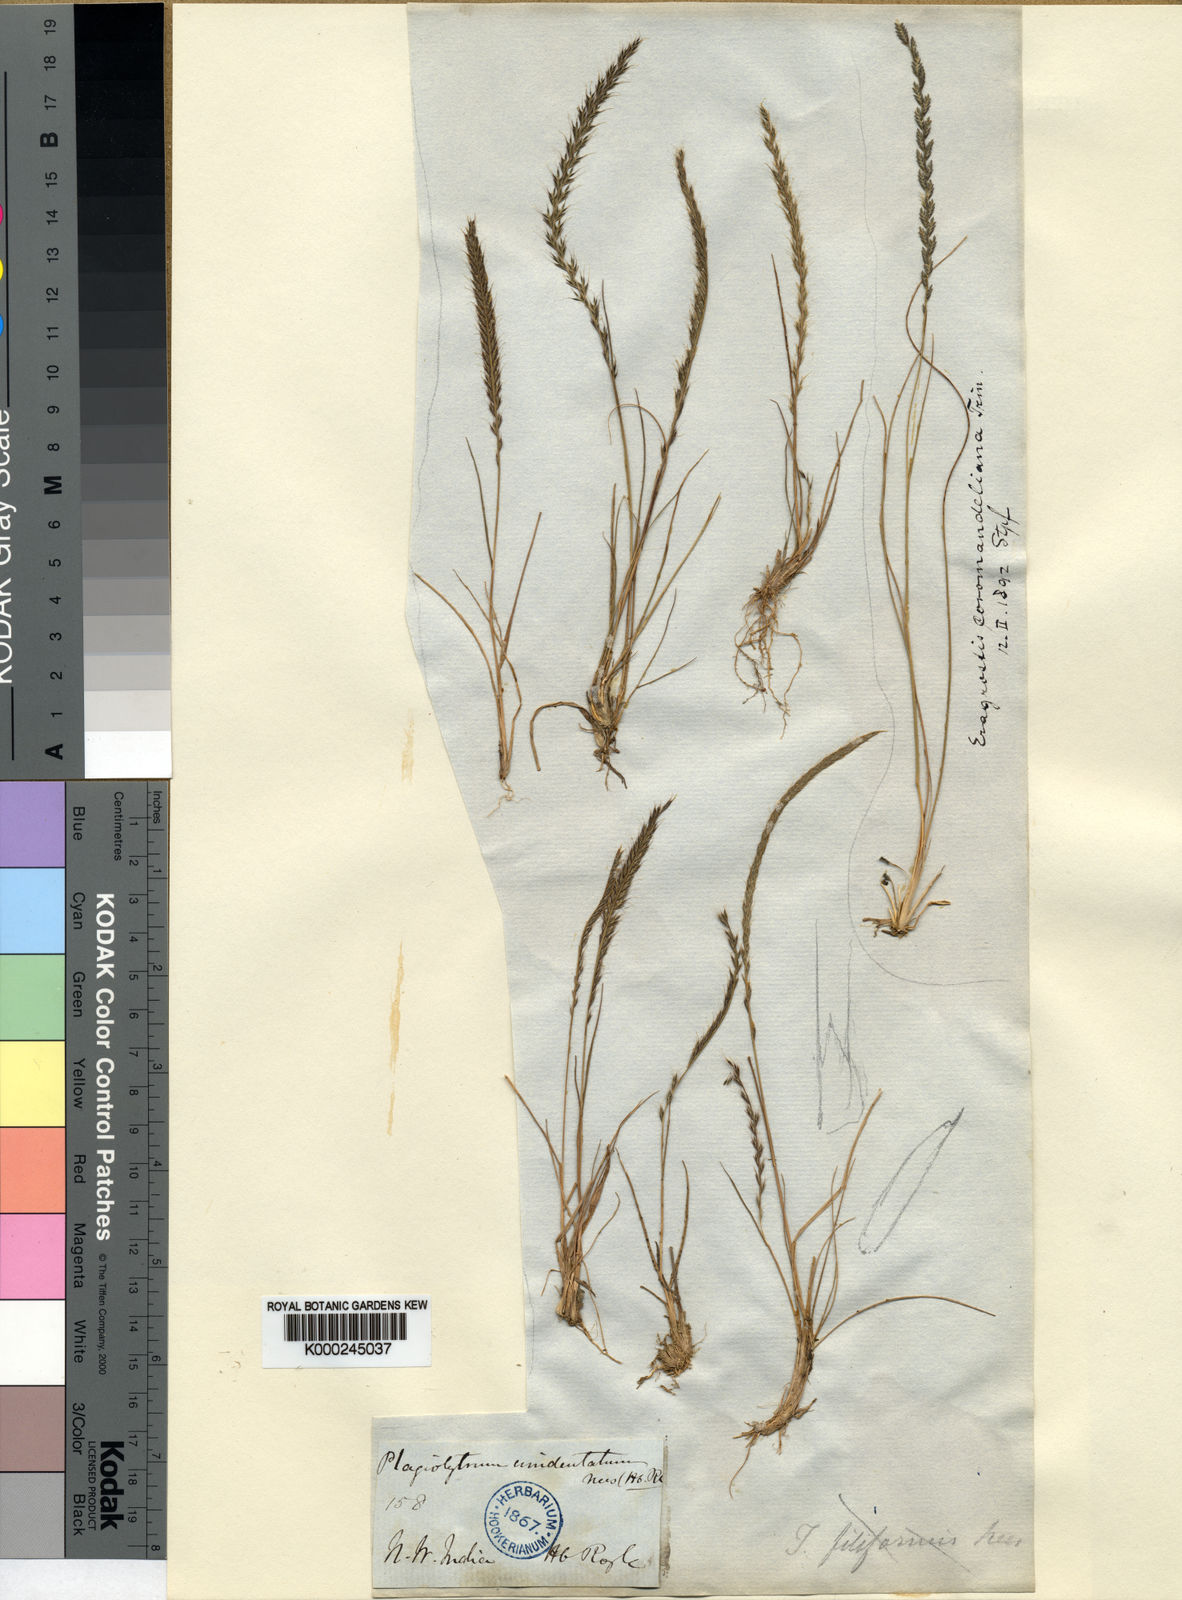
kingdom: Plantae
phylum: Tracheophyta
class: Liliopsida
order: Poales
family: Poaceae
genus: Tripogon
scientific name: Tripogon filiformis
